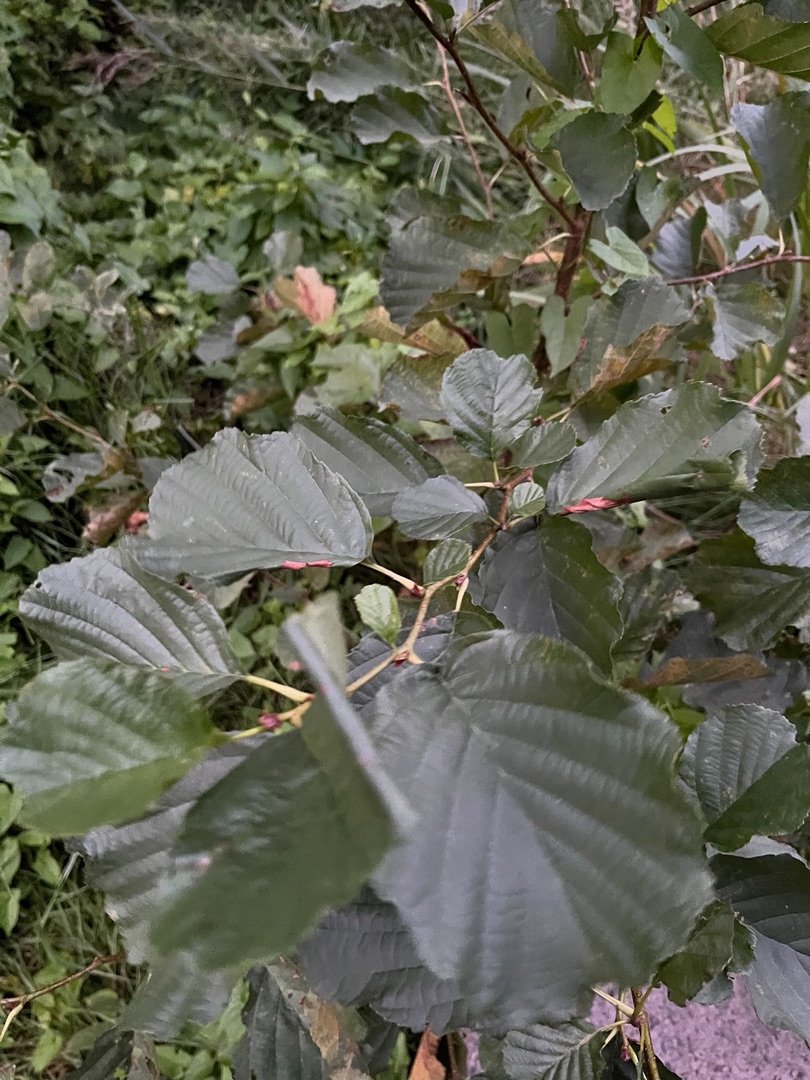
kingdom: Plantae
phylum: Tracheophyta
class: Magnoliopsida
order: Fagales
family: Betulaceae
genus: Alnus
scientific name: Alnus glutinosa
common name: Rød-el
